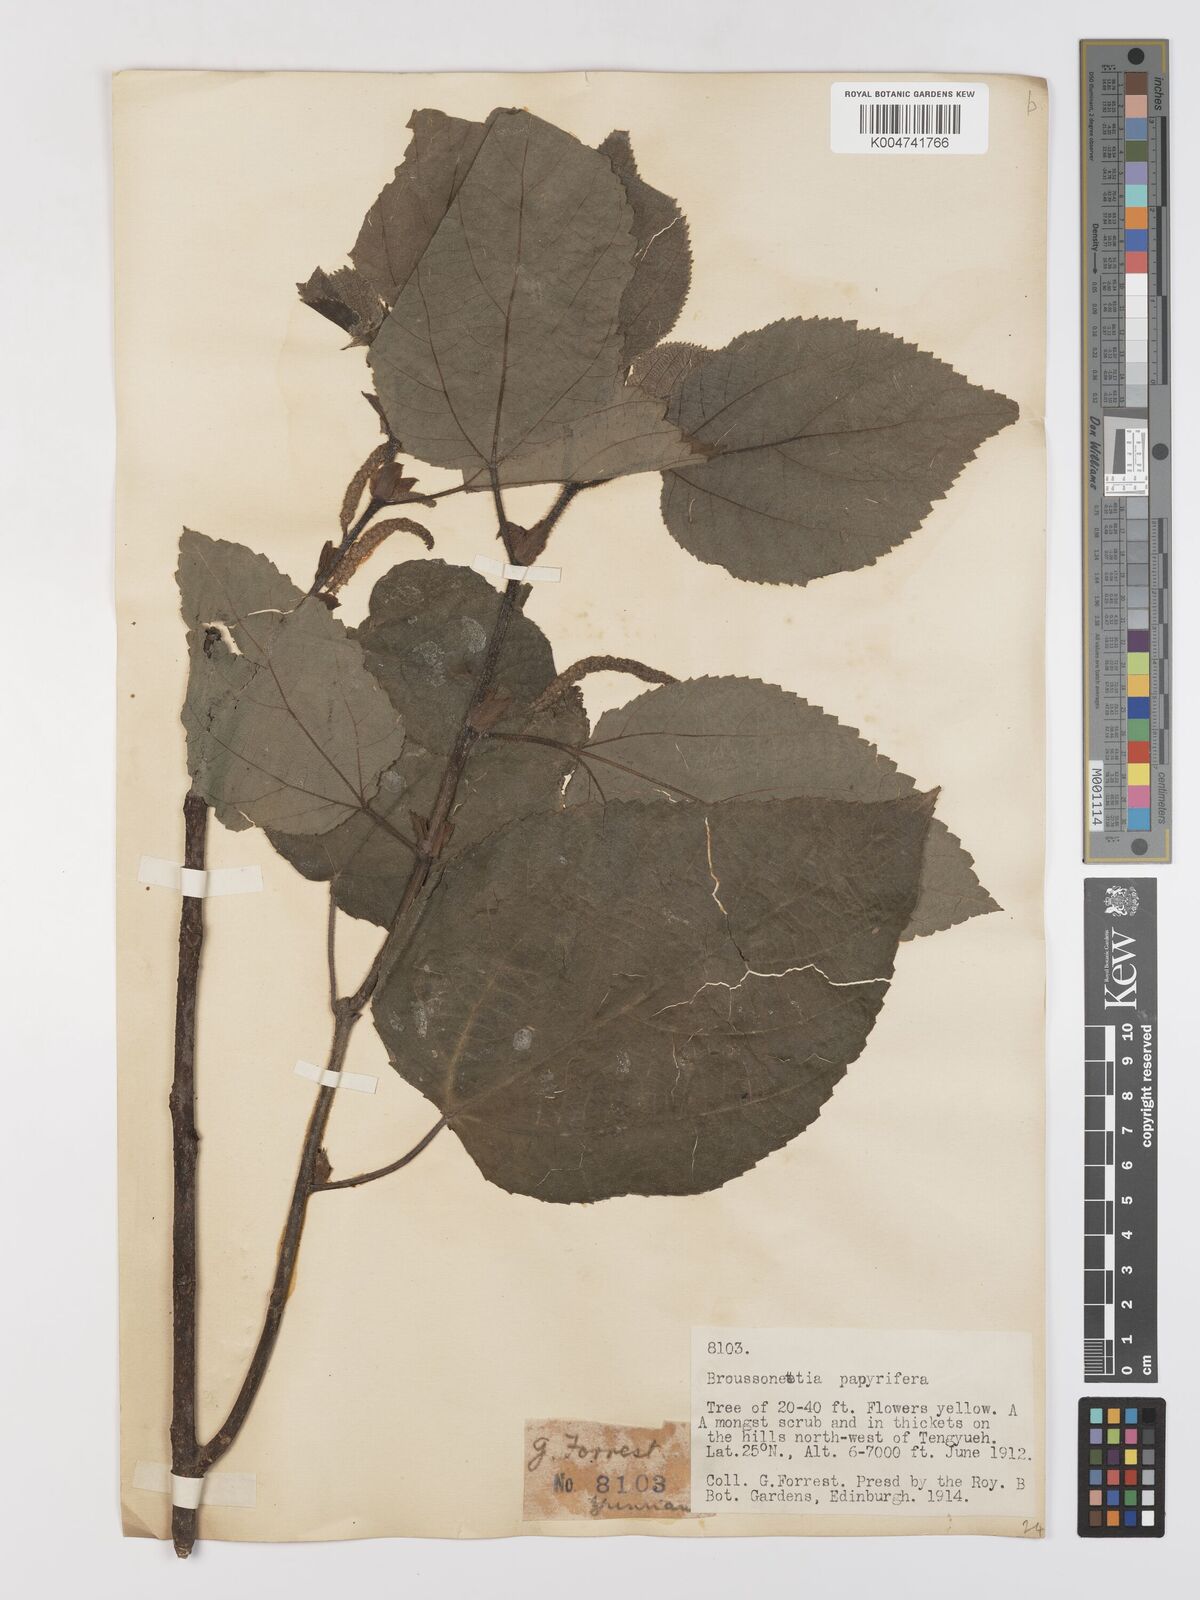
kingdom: Plantae
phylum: Tracheophyta
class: Magnoliopsida
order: Rosales
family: Moraceae
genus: Broussonetia
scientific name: Broussonetia
